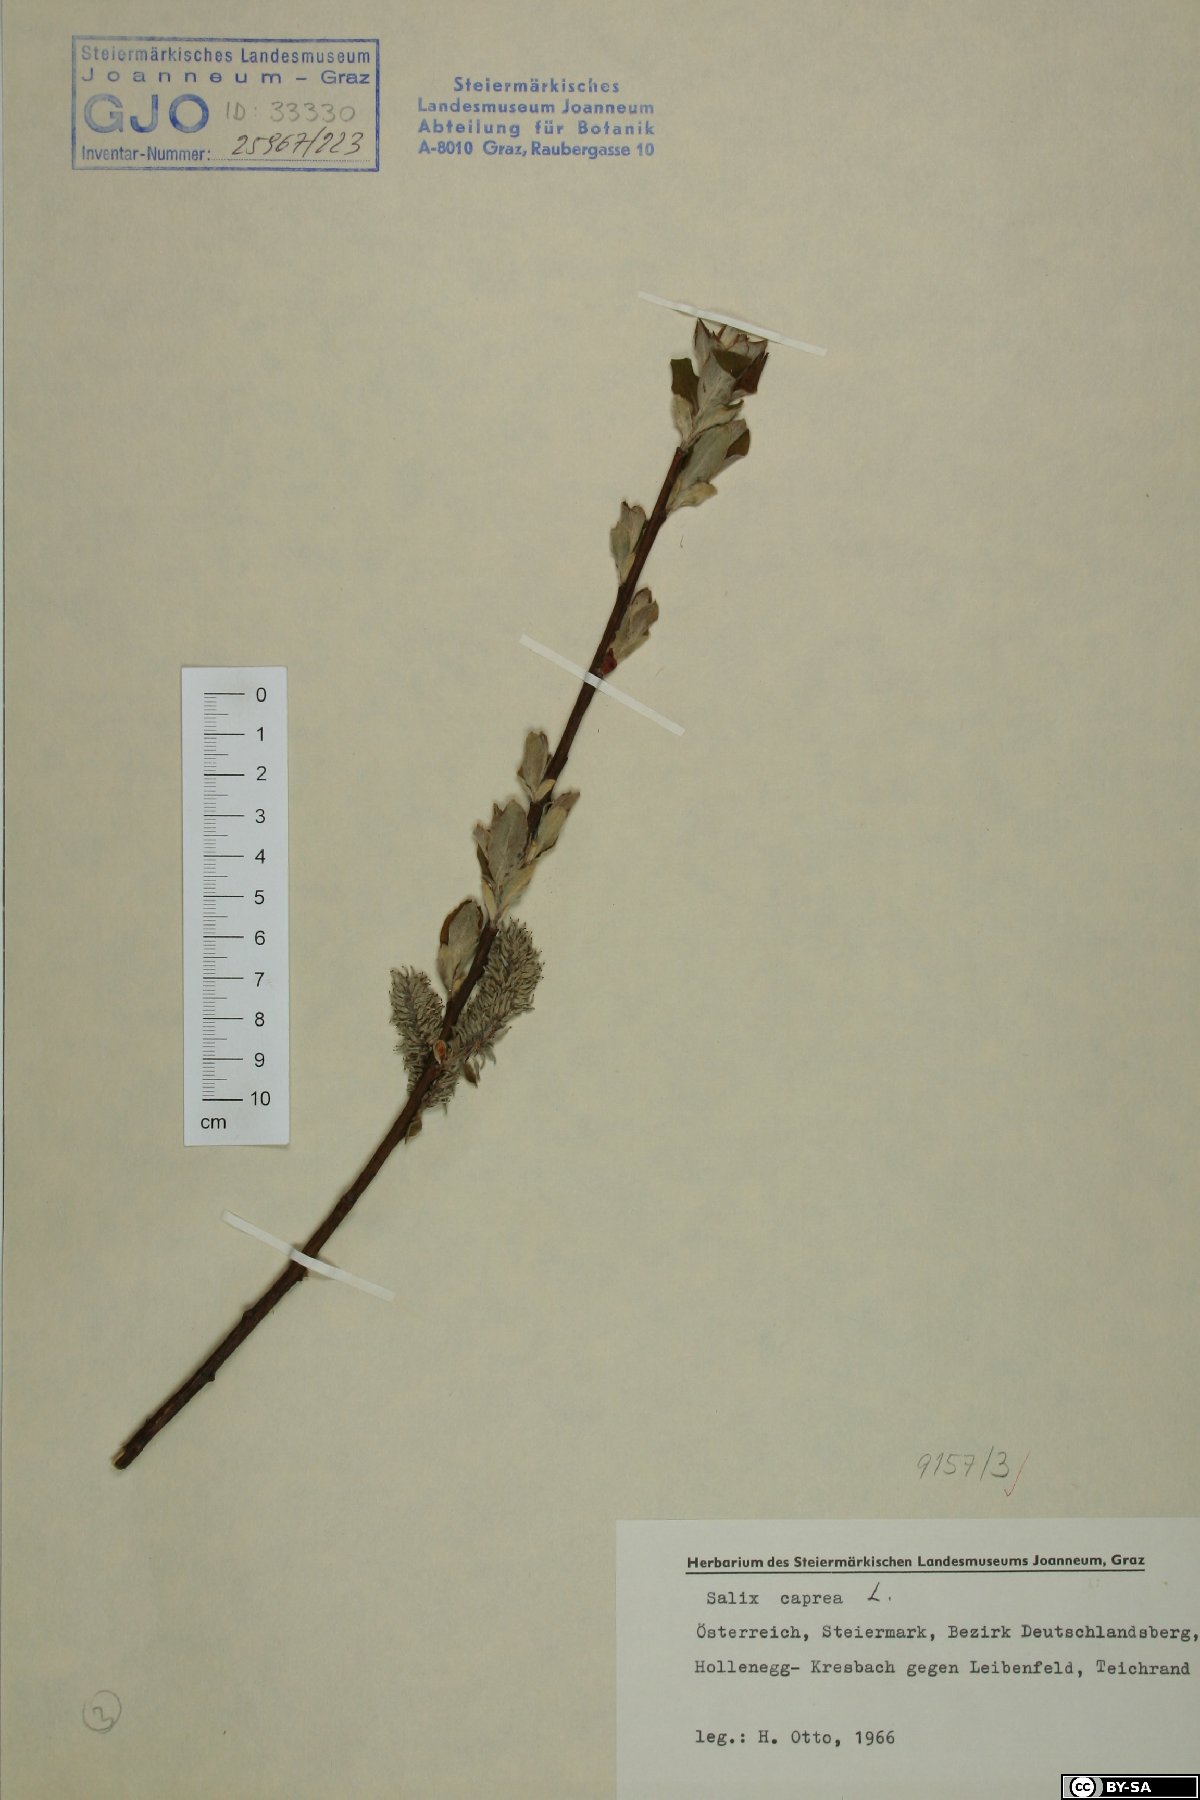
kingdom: Plantae
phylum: Tracheophyta
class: Magnoliopsida
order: Malpighiales
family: Salicaceae
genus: Salix
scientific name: Salix caprea
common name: Goat willow
